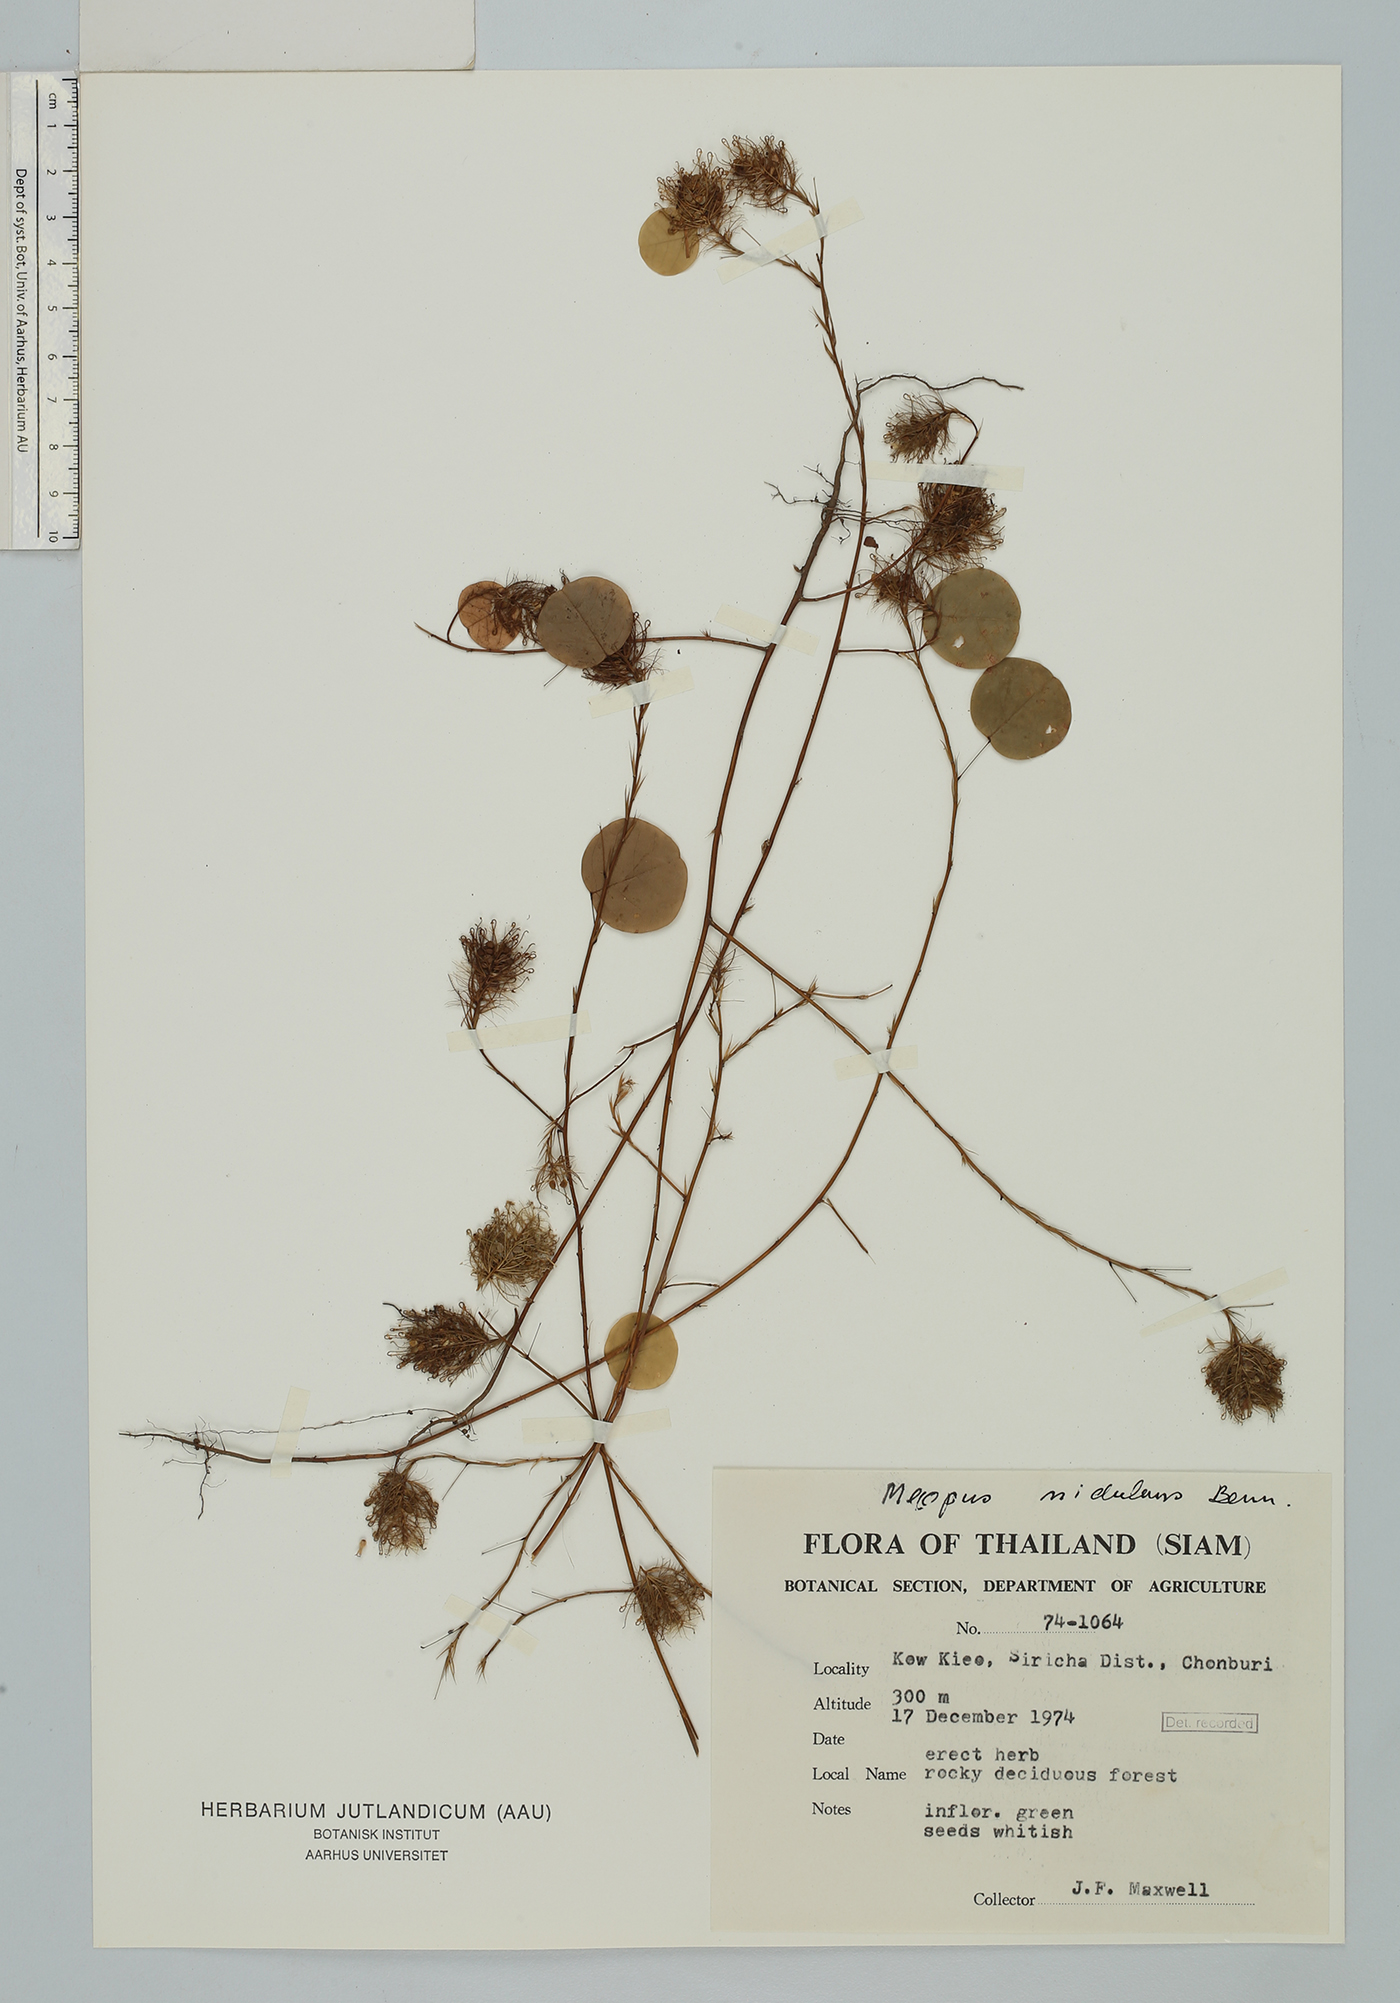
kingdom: Plantae
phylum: Tracheophyta
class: Magnoliopsida
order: Fabales
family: Fabaceae
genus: Mecopus
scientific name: Mecopus nidulans
